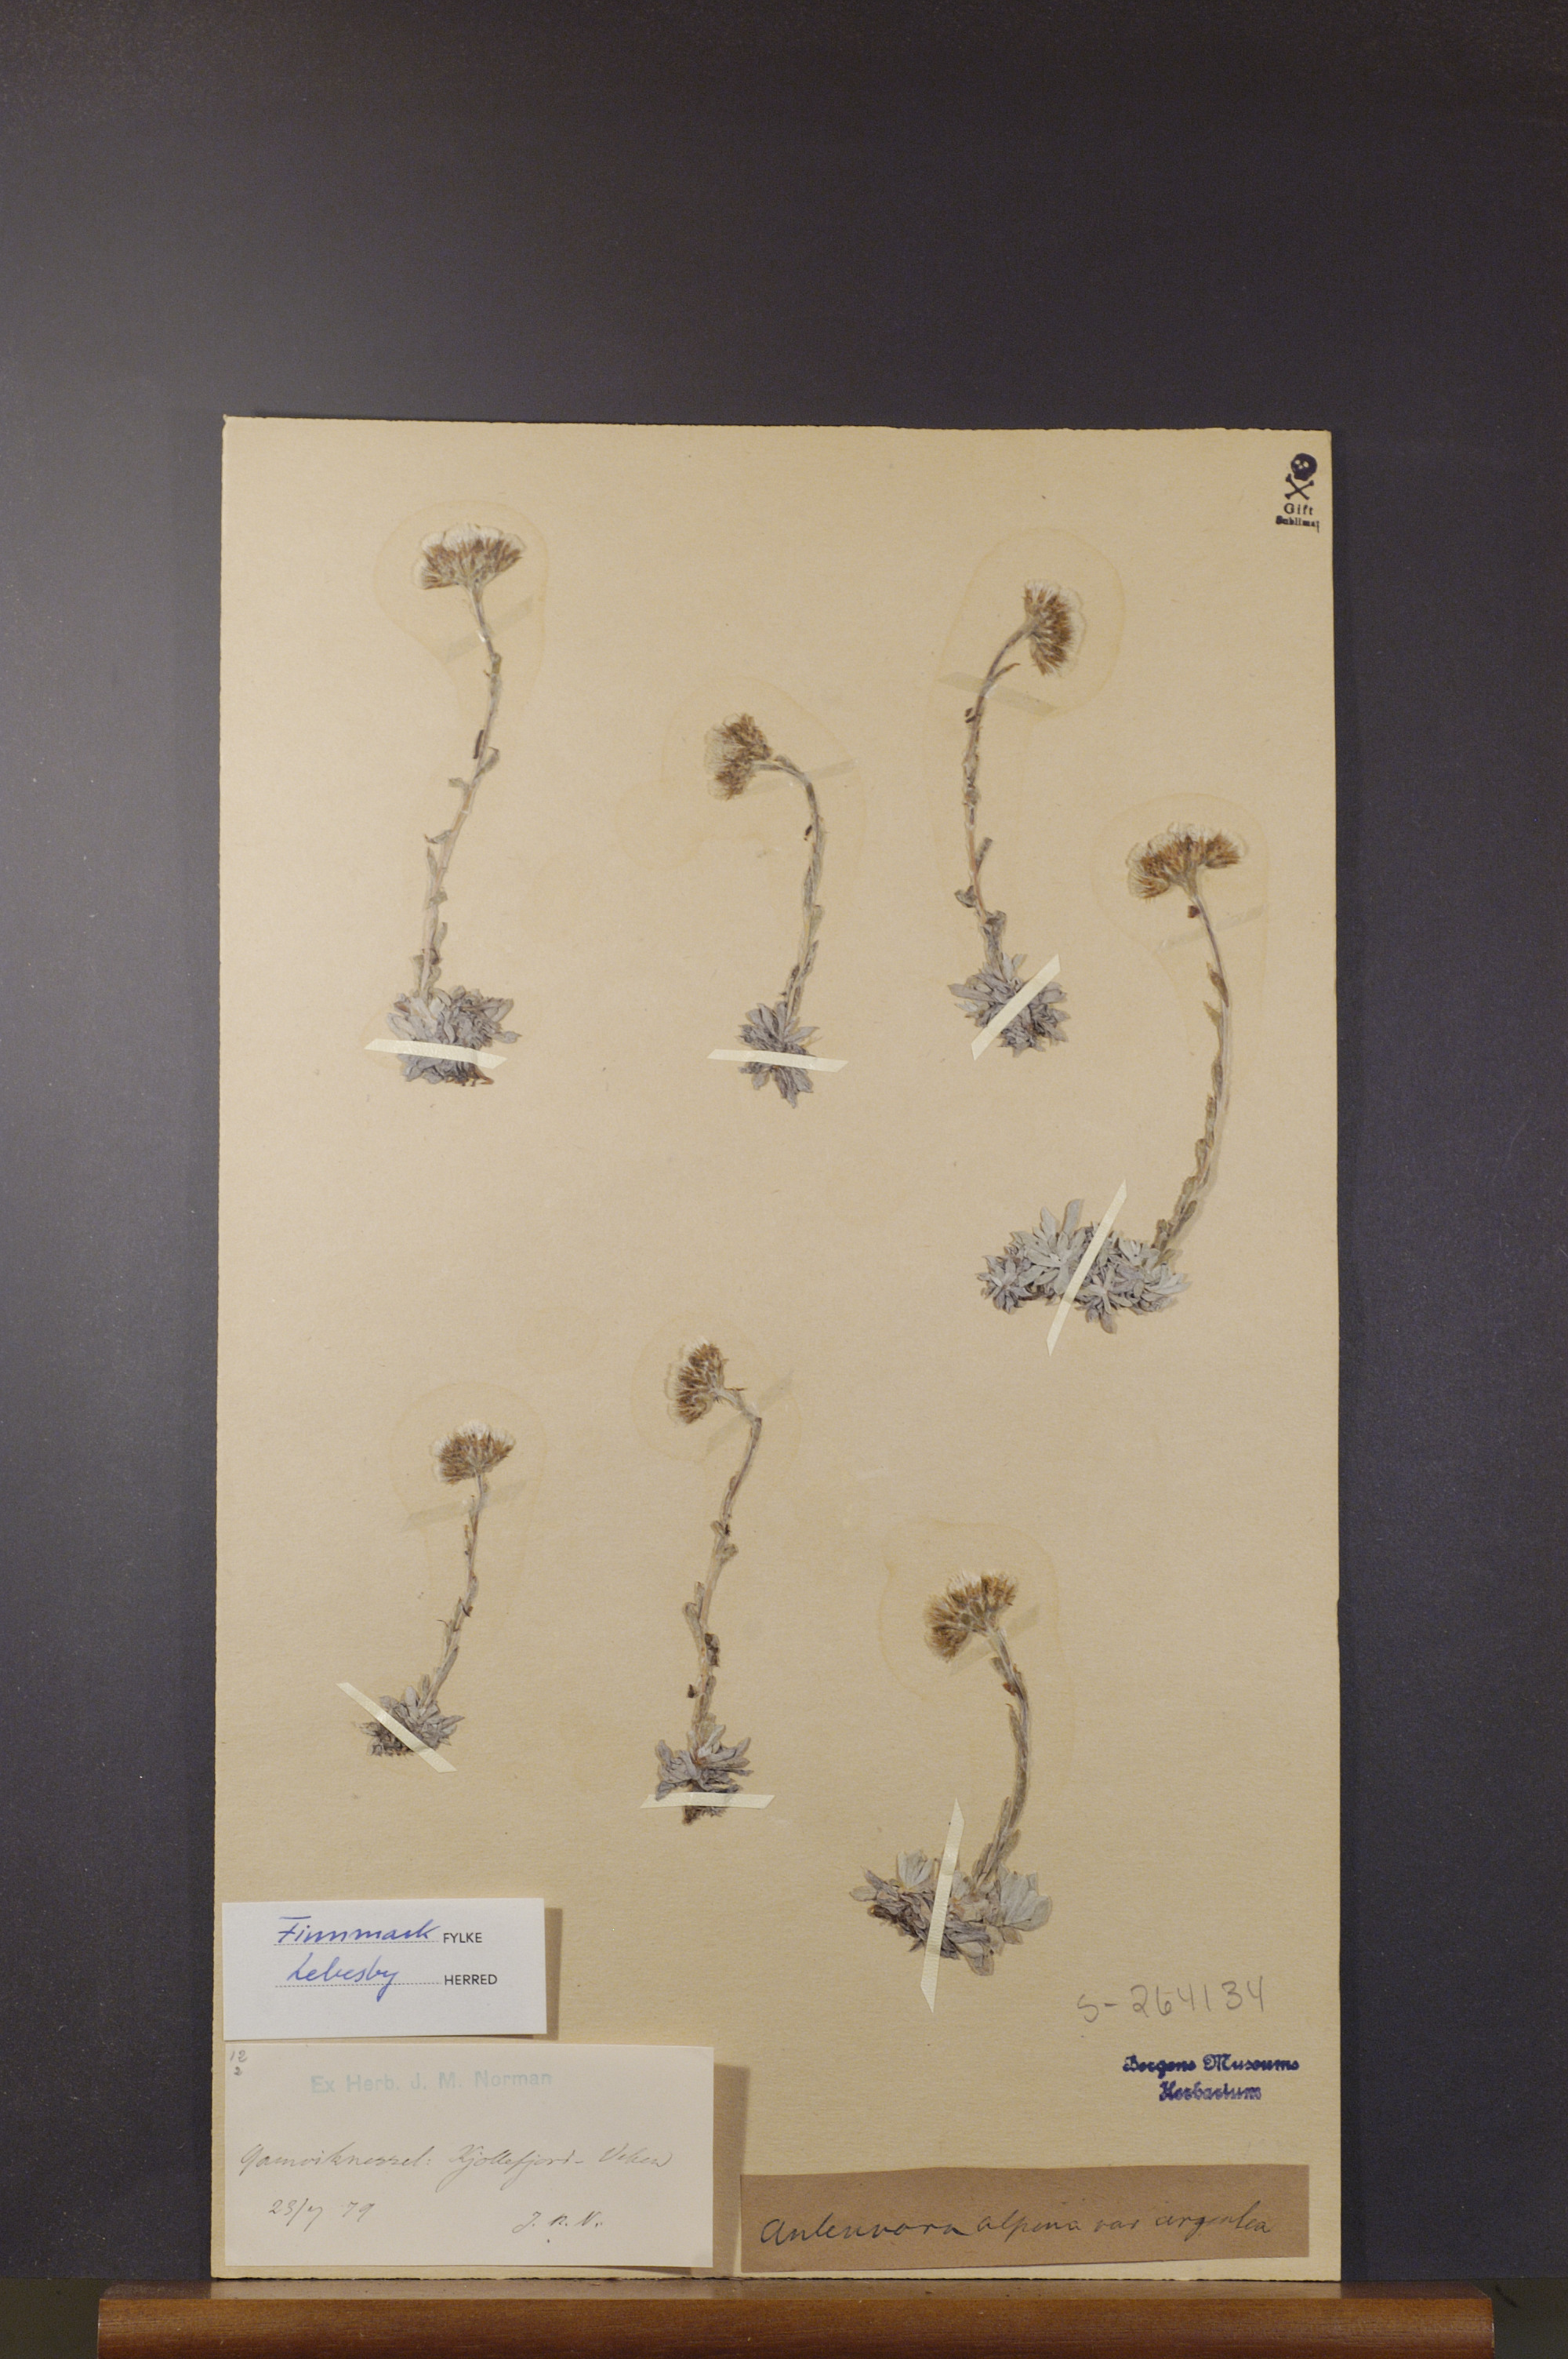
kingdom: Plantae
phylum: Tracheophyta
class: Magnoliopsida
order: Asterales
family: Asteraceae
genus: Antennaria
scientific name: Antennaria alpina
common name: Alpine pussytoes
